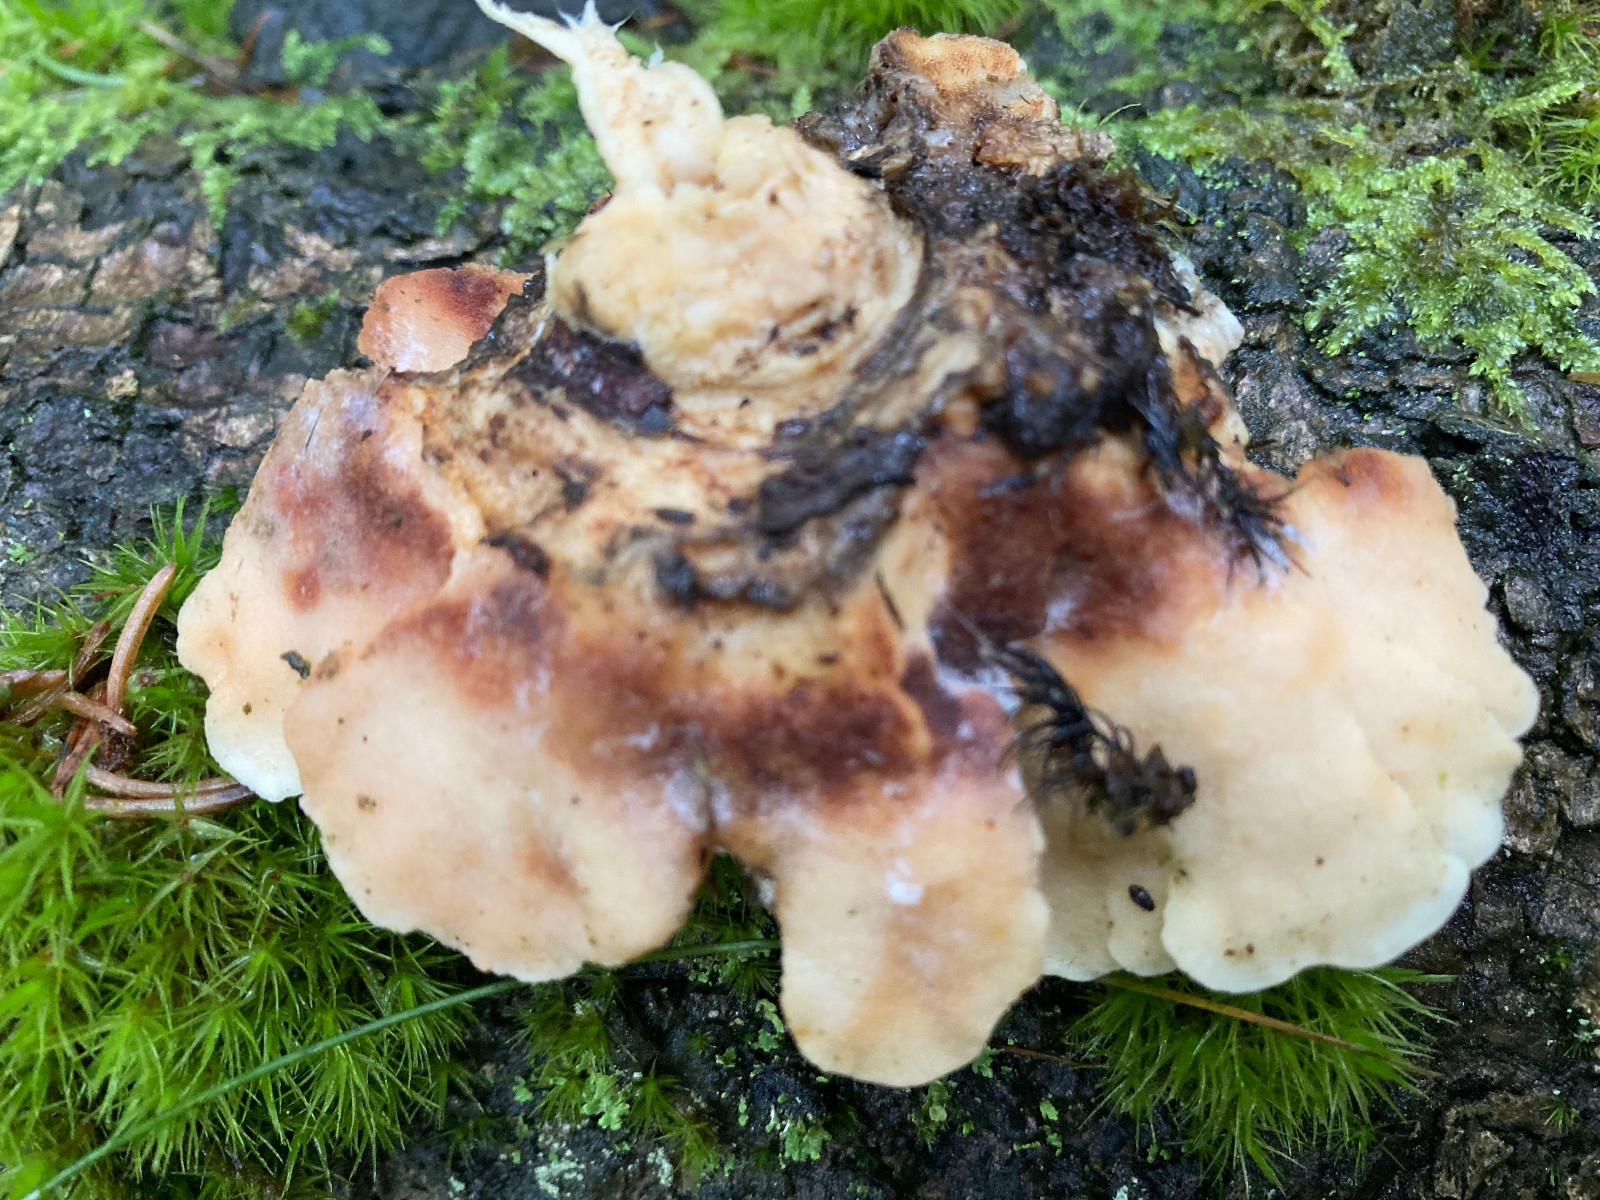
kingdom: Fungi
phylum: Basidiomycota
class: Agaricomycetes
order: Polyporales
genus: Fuscopostia
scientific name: Fuscopostia fragilis
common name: brunende kødporesvamp
